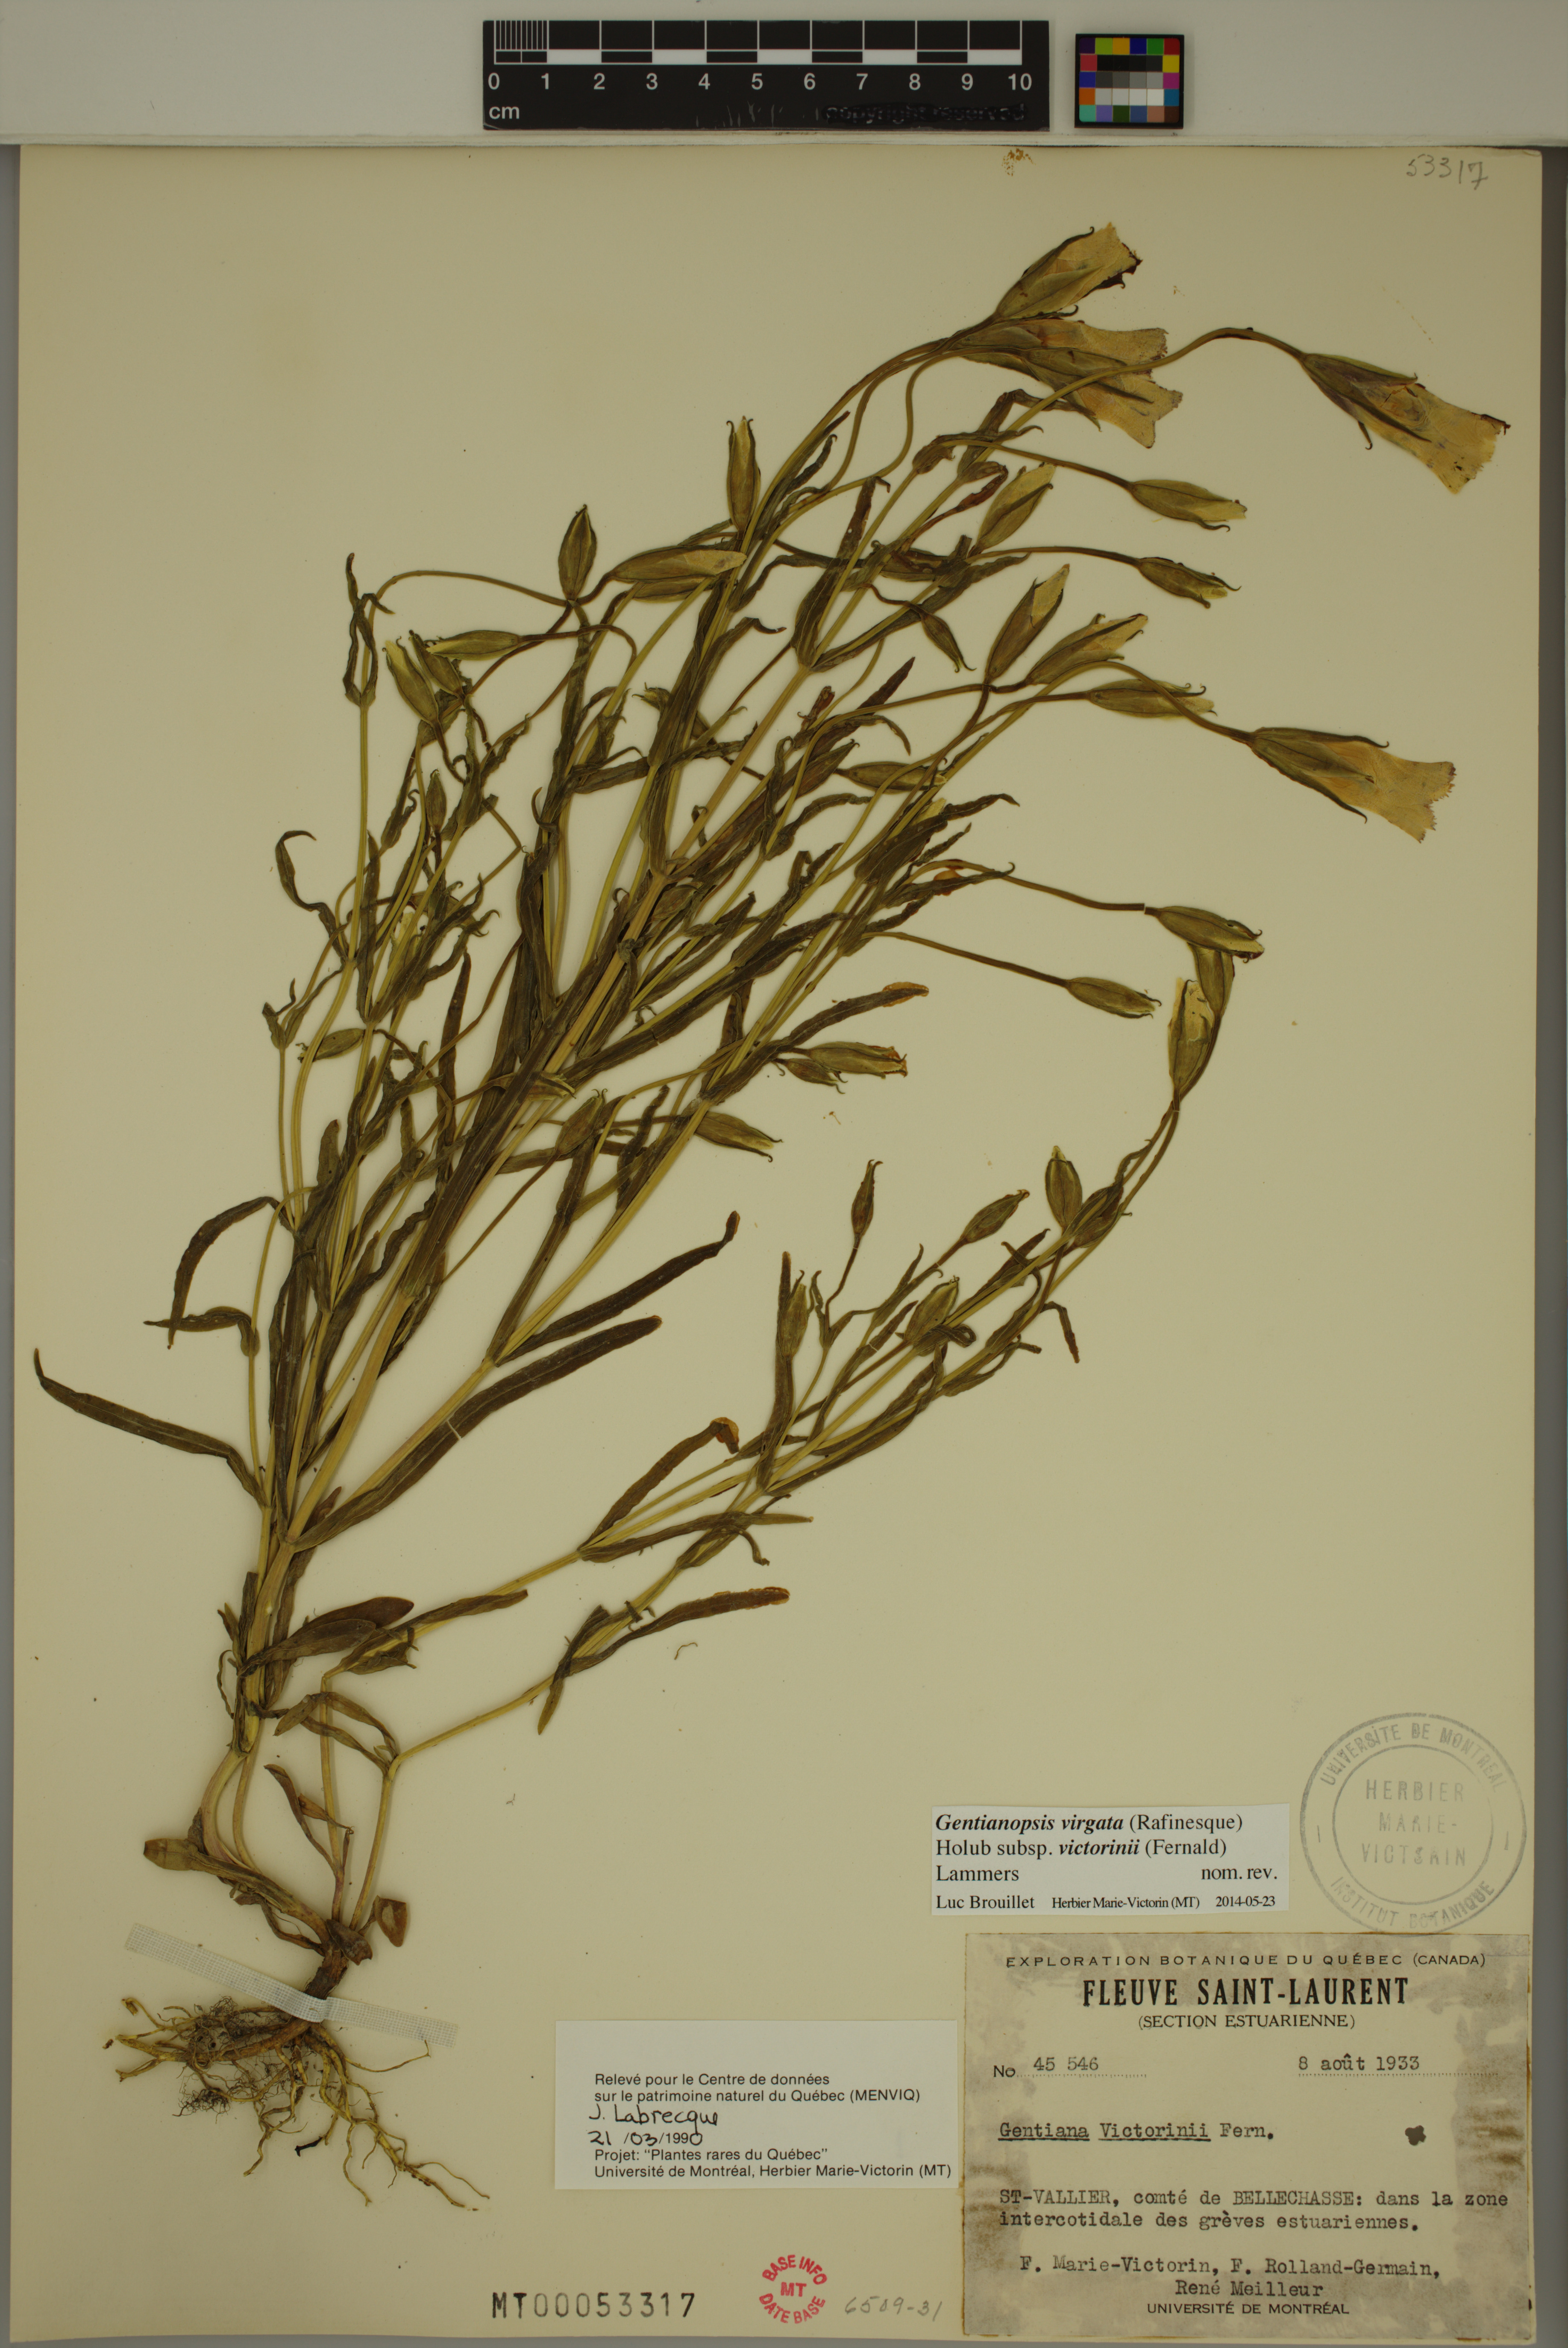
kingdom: Plantae
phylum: Tracheophyta
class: Magnoliopsida
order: Gentianales
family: Gentianaceae
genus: Gentianopsis
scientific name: Gentianopsis victorinii
